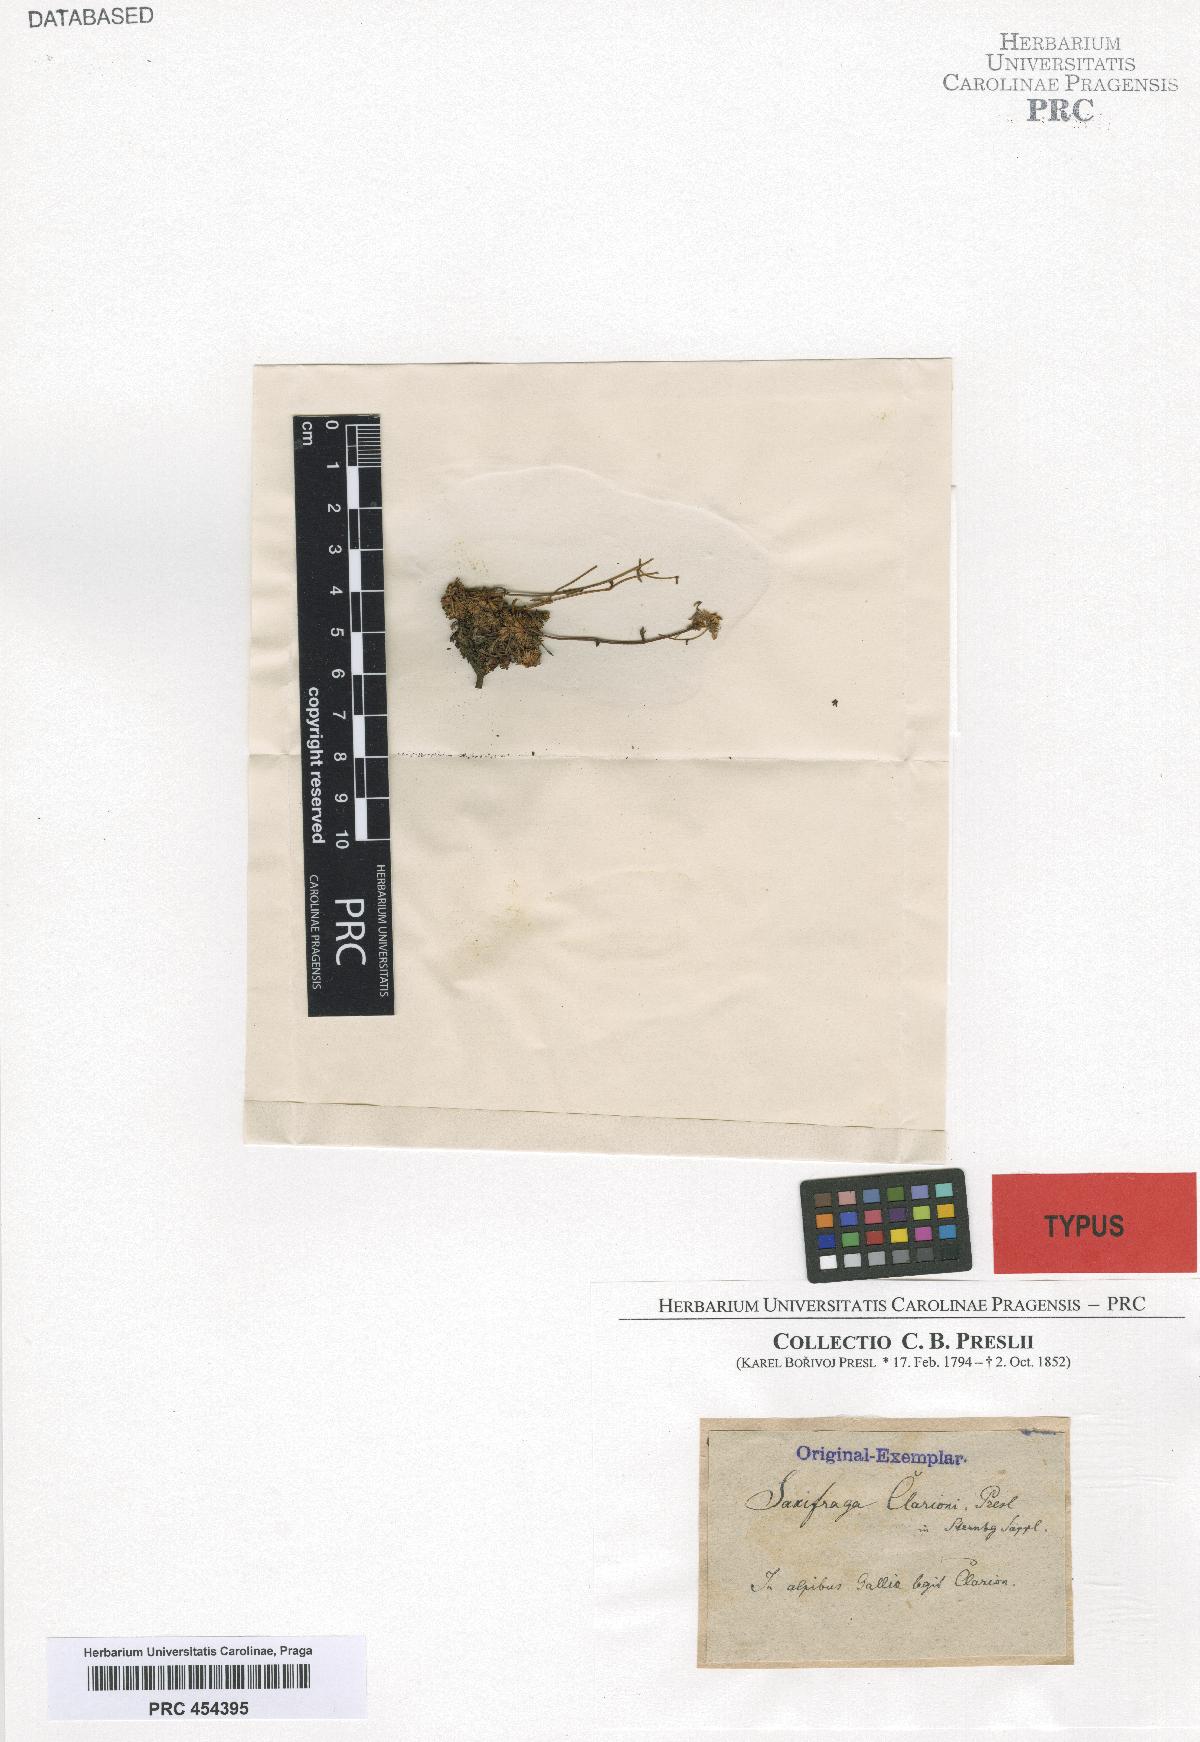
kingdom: Plantae
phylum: Tracheophyta
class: Magnoliopsida
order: Saxifragales
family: Saxifragaceae
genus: Saxifraga
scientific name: Saxifraga exarata
